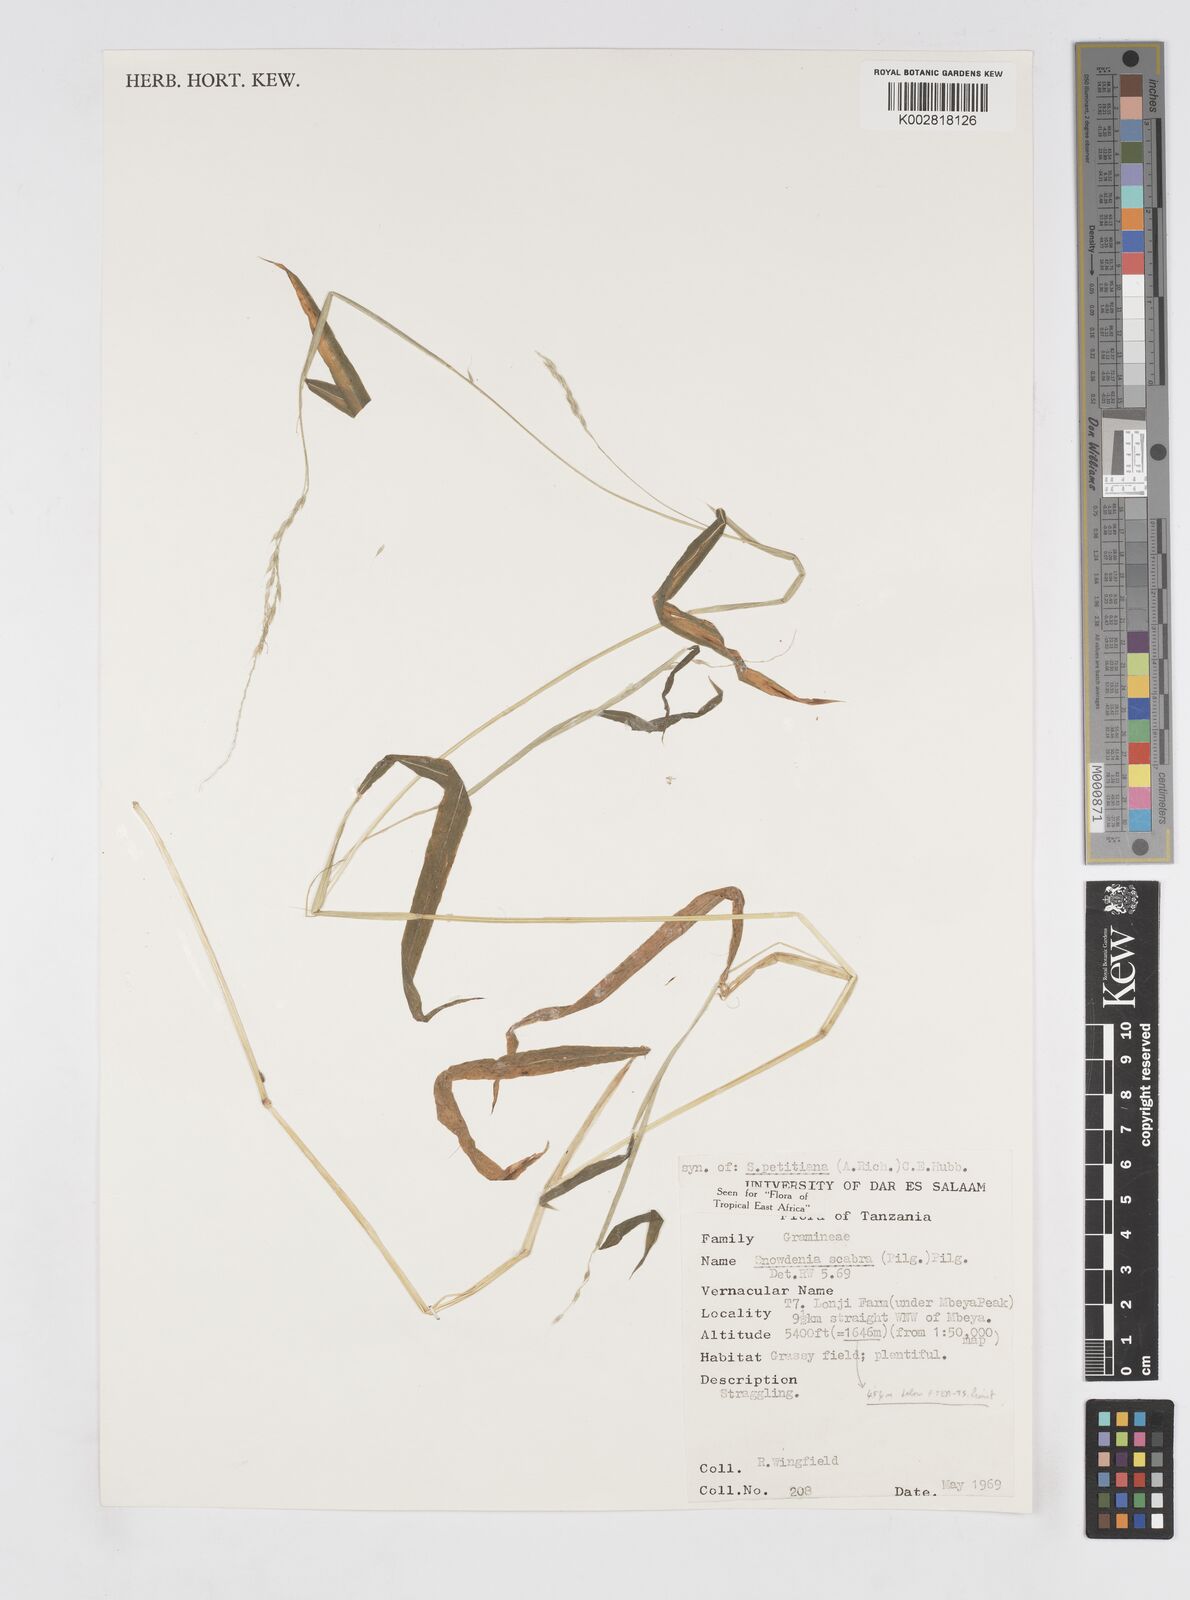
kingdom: Plantae
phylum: Tracheophyta
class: Liliopsida
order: Poales
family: Poaceae
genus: Snowdenia
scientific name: Snowdenia petitiana
